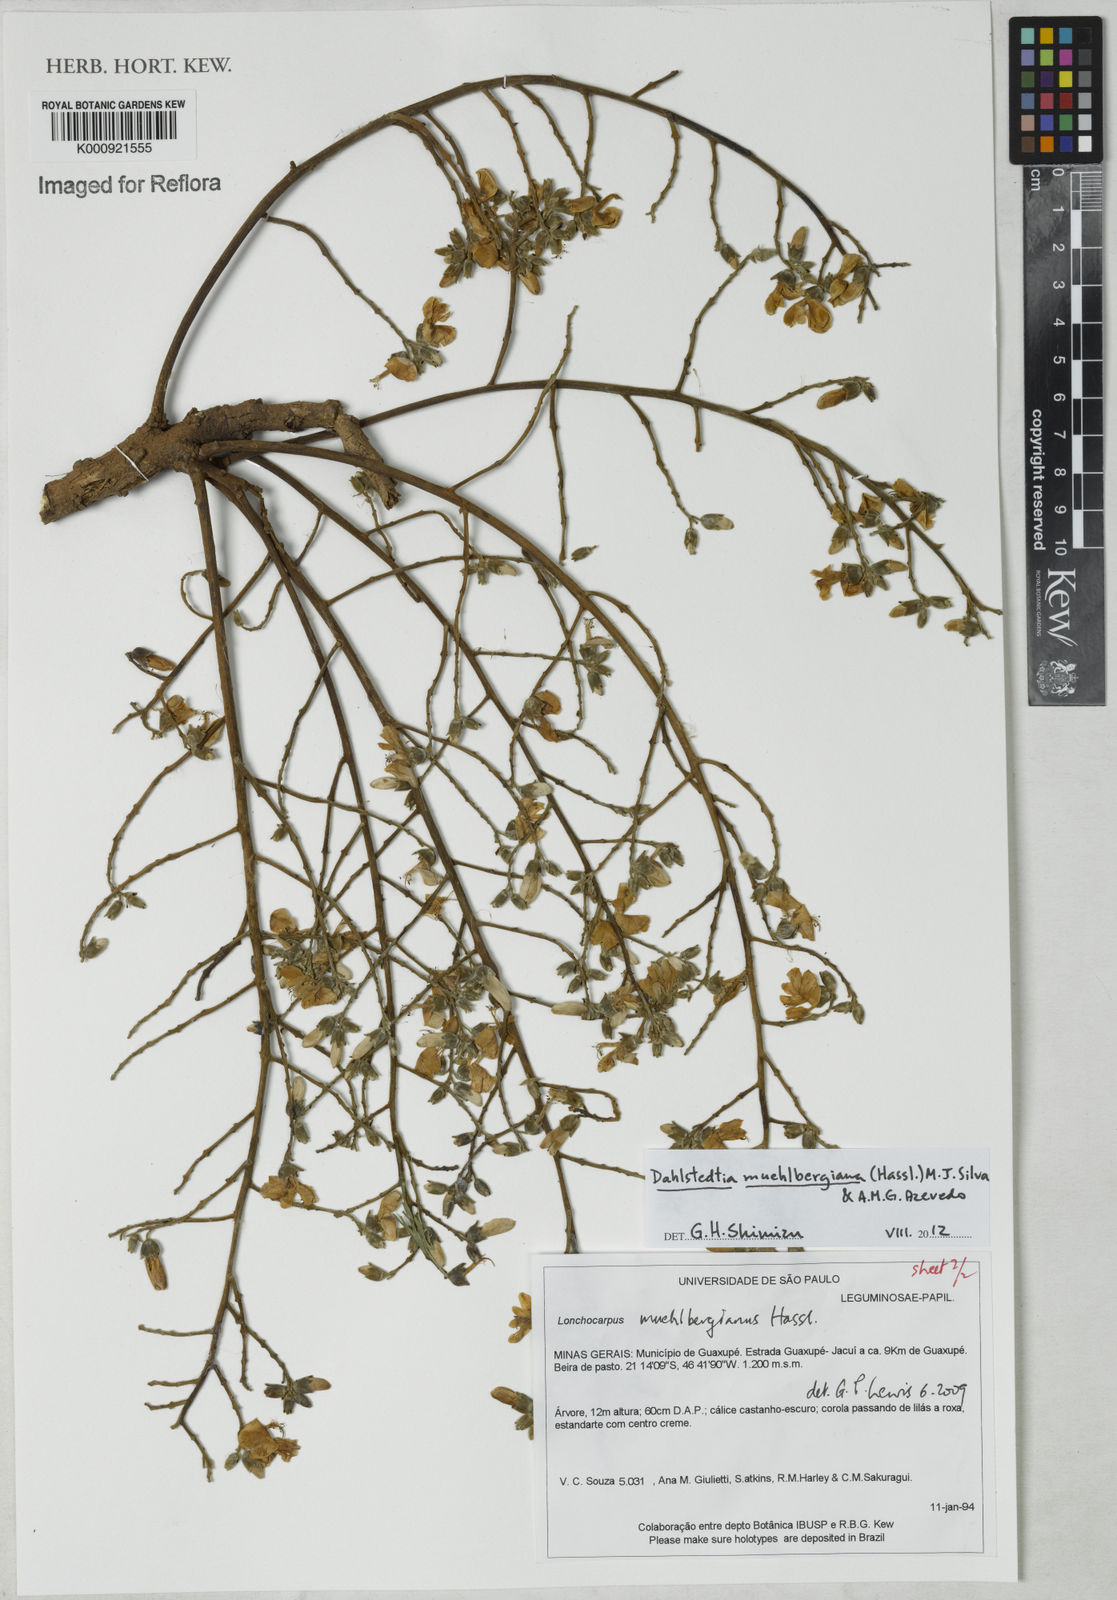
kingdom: Plantae
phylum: Tracheophyta
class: Magnoliopsida
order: Fabales
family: Fabaceae
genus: Dahlstedtia
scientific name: Dahlstedtia muehlbergiana
